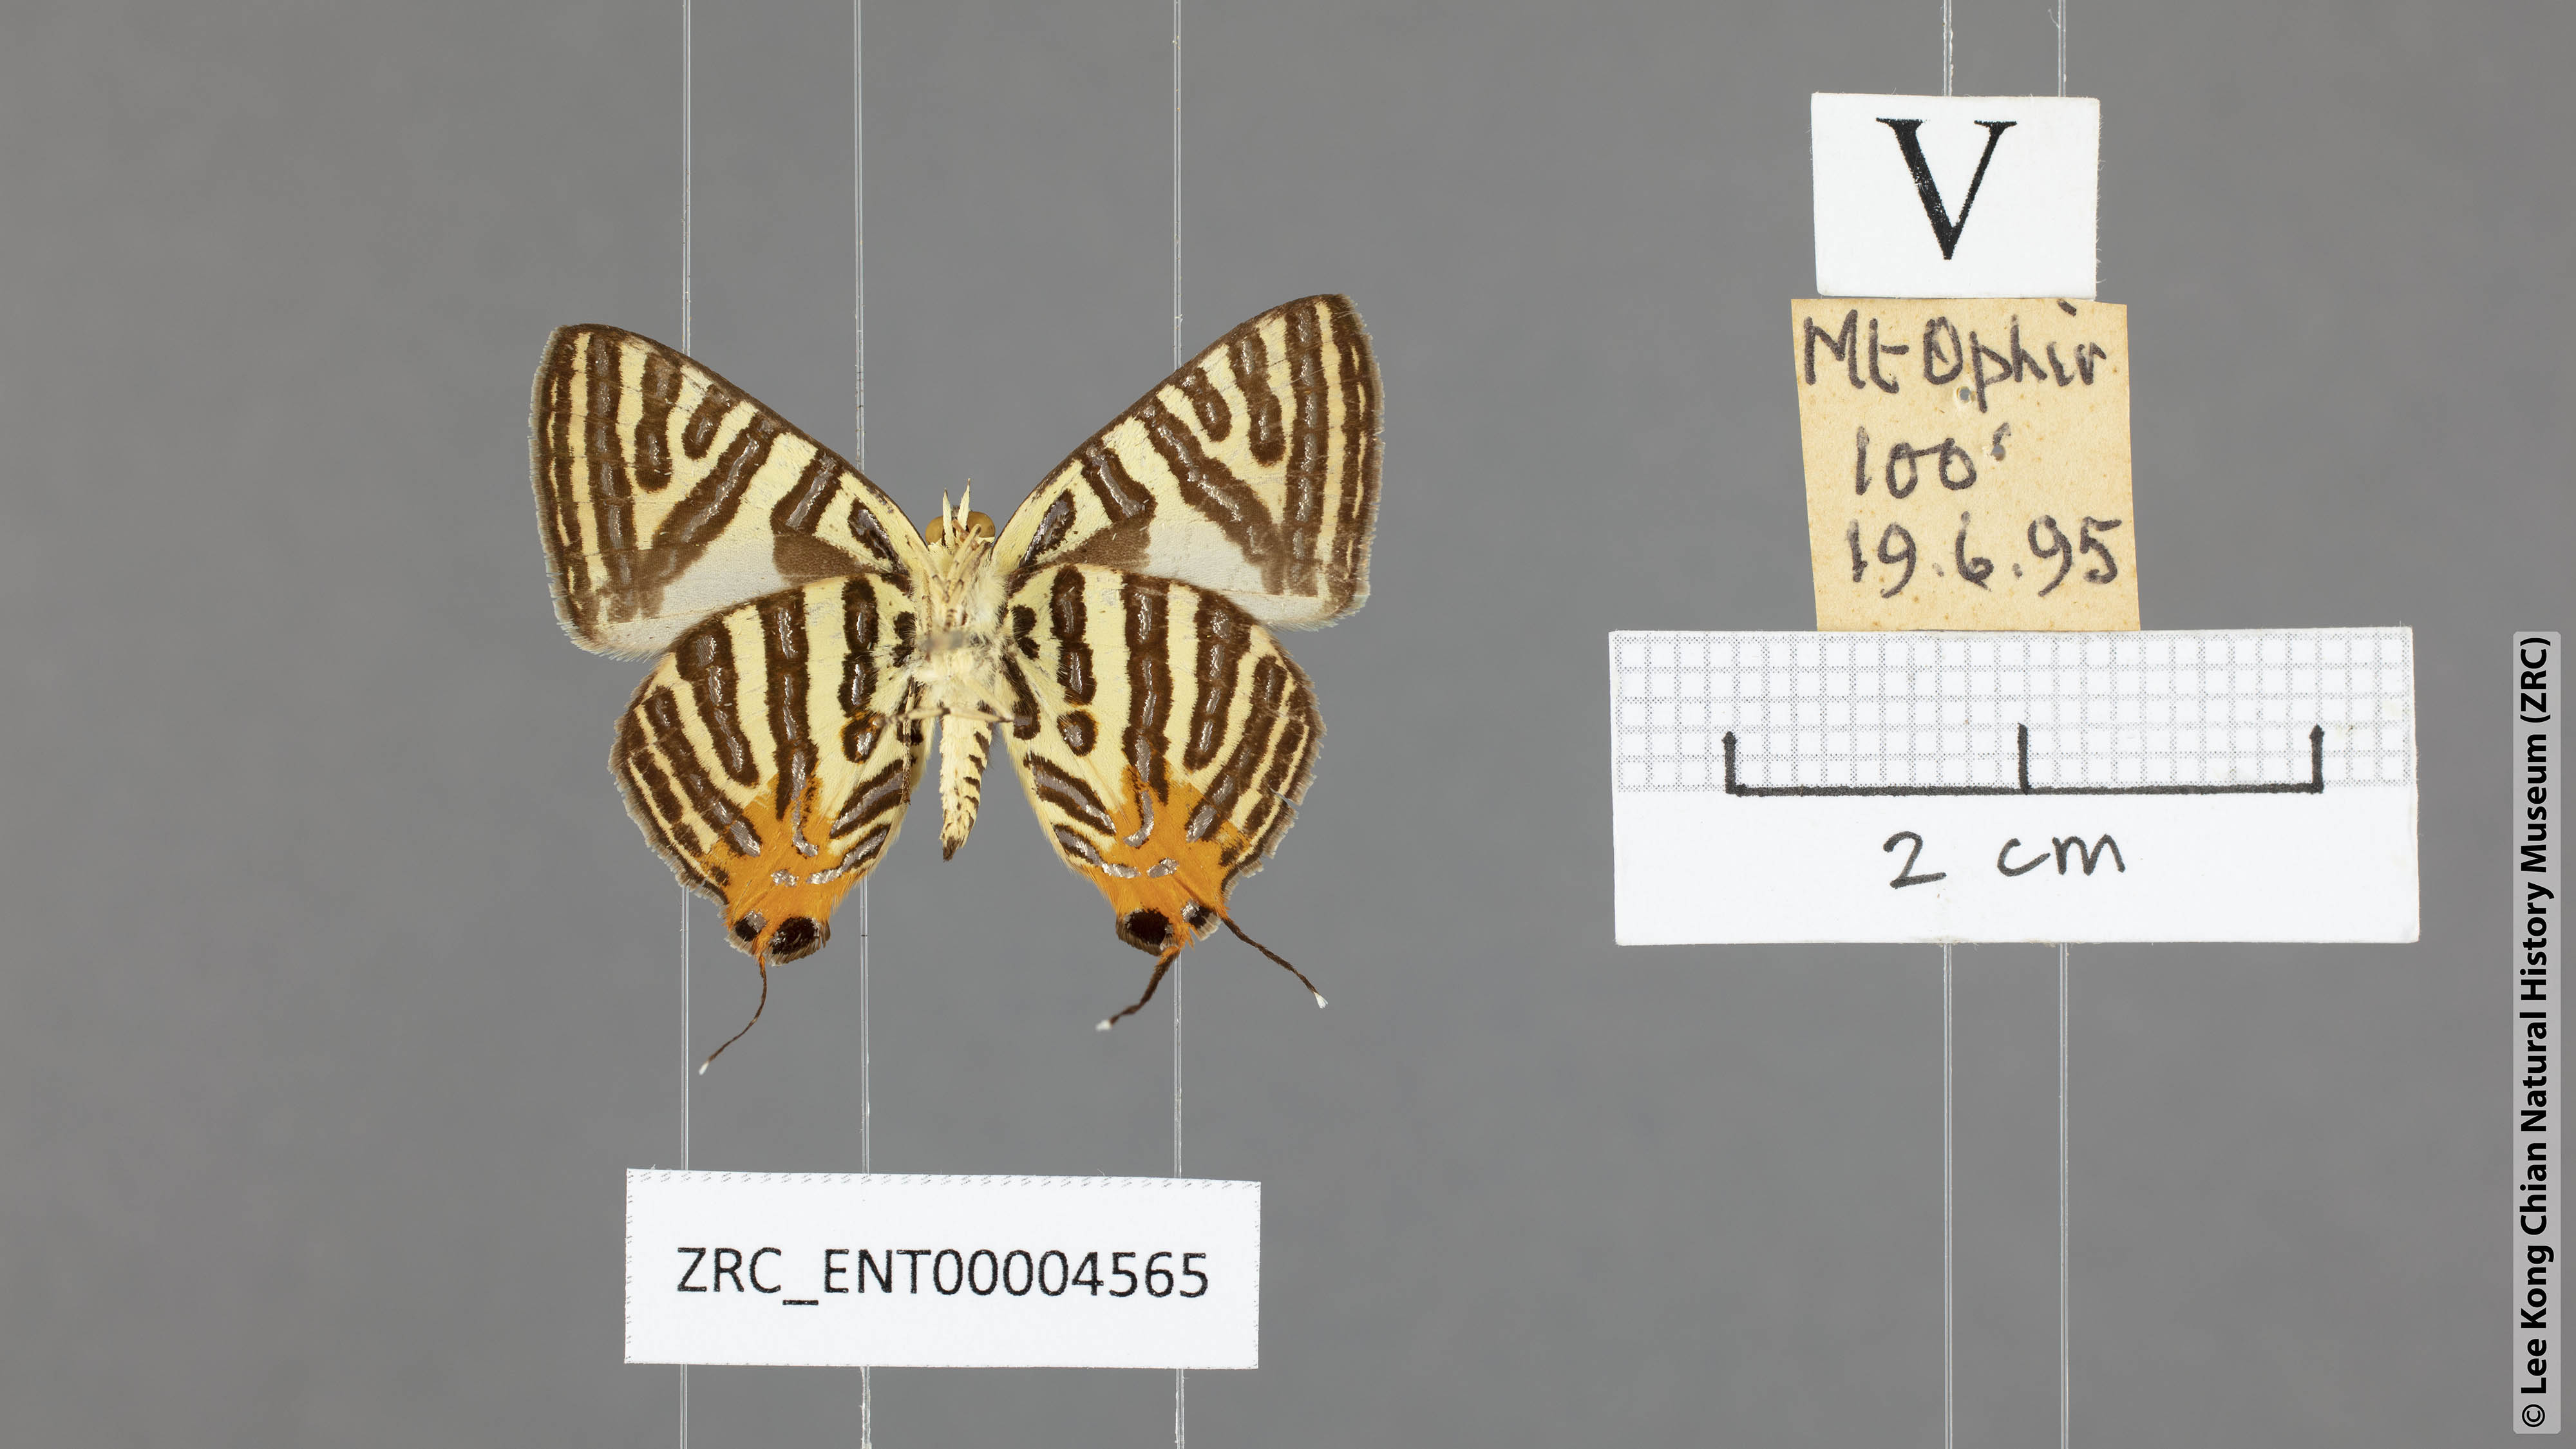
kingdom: Animalia
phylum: Arthropoda
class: Insecta
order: Lepidoptera
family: Lycaenidae
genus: Spindasis
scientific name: Spindasis syama
